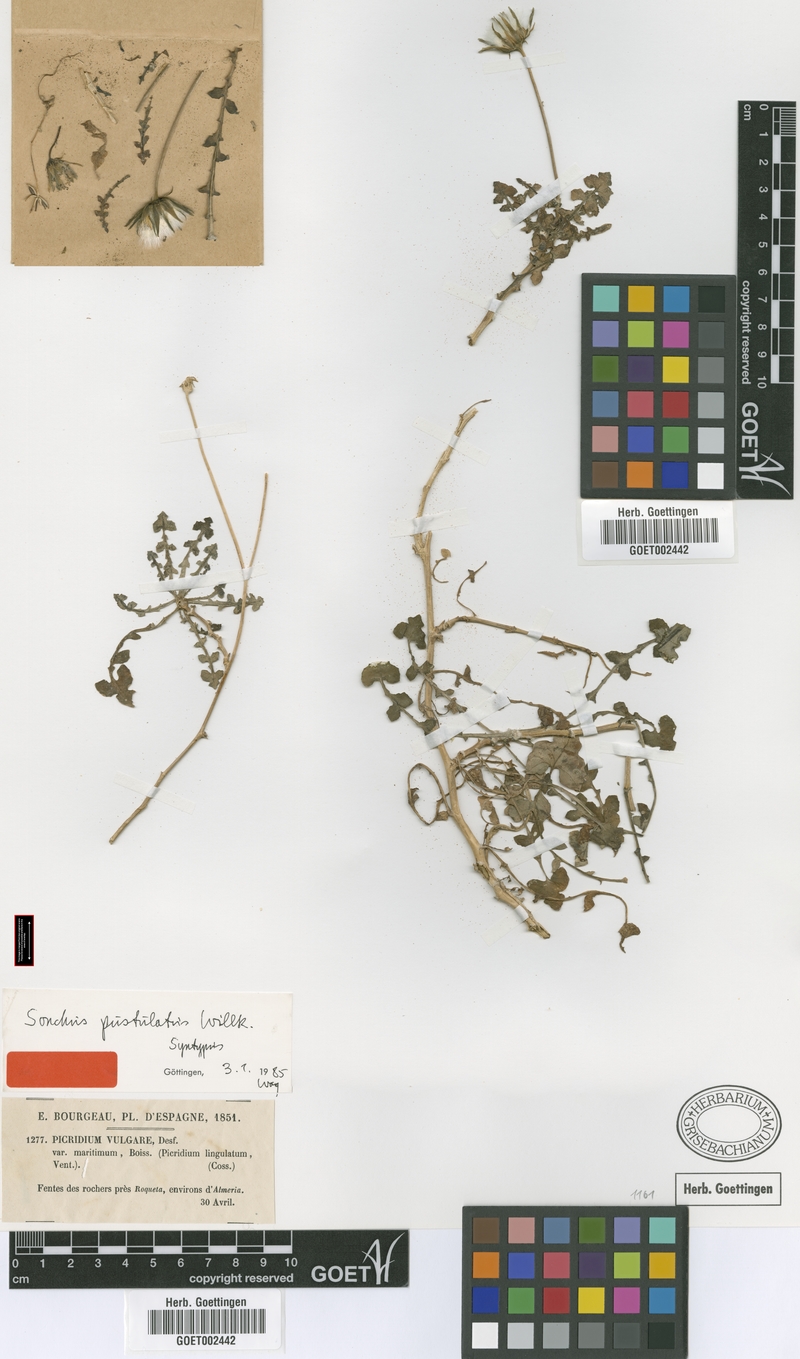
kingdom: Plantae
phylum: Tracheophyta
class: Magnoliopsida
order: Asterales
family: Asteraceae
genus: Sonchus
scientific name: Sonchus pustulatus
